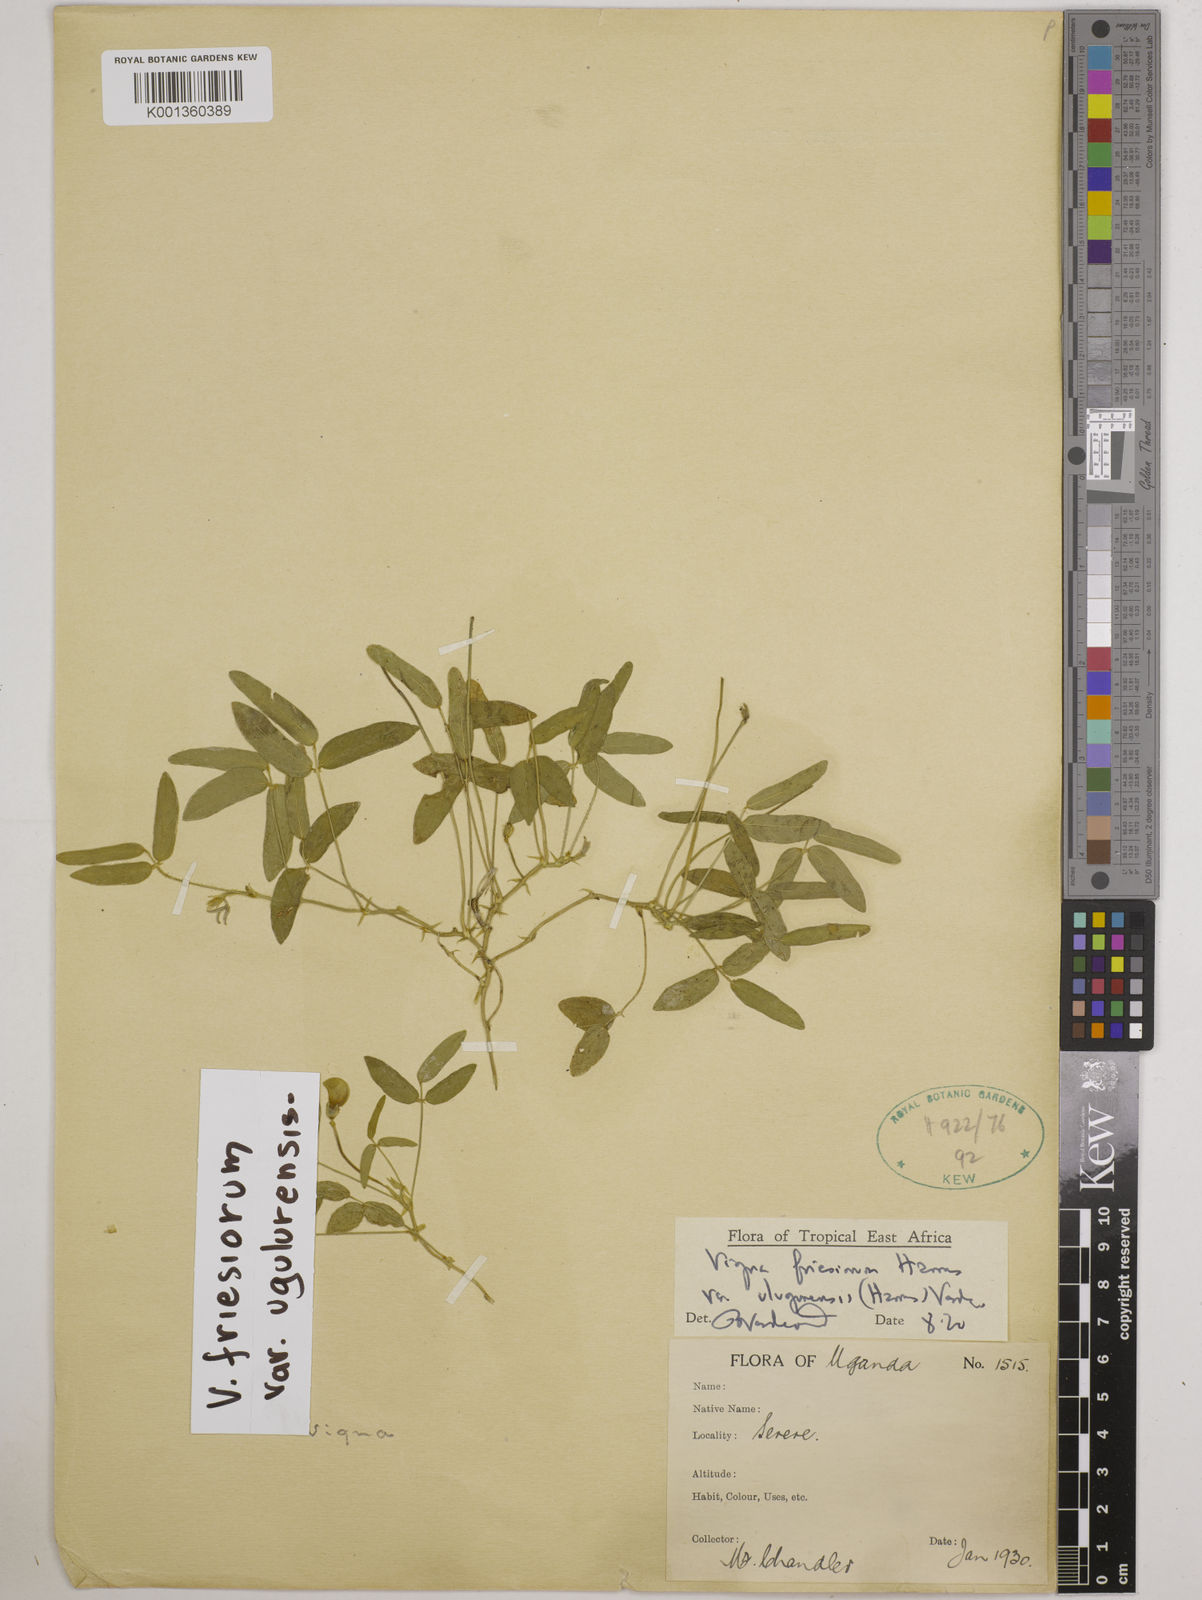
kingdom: Plantae
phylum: Tracheophyta
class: Magnoliopsida
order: Fabales
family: Fabaceae
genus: Vigna
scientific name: Vigna
